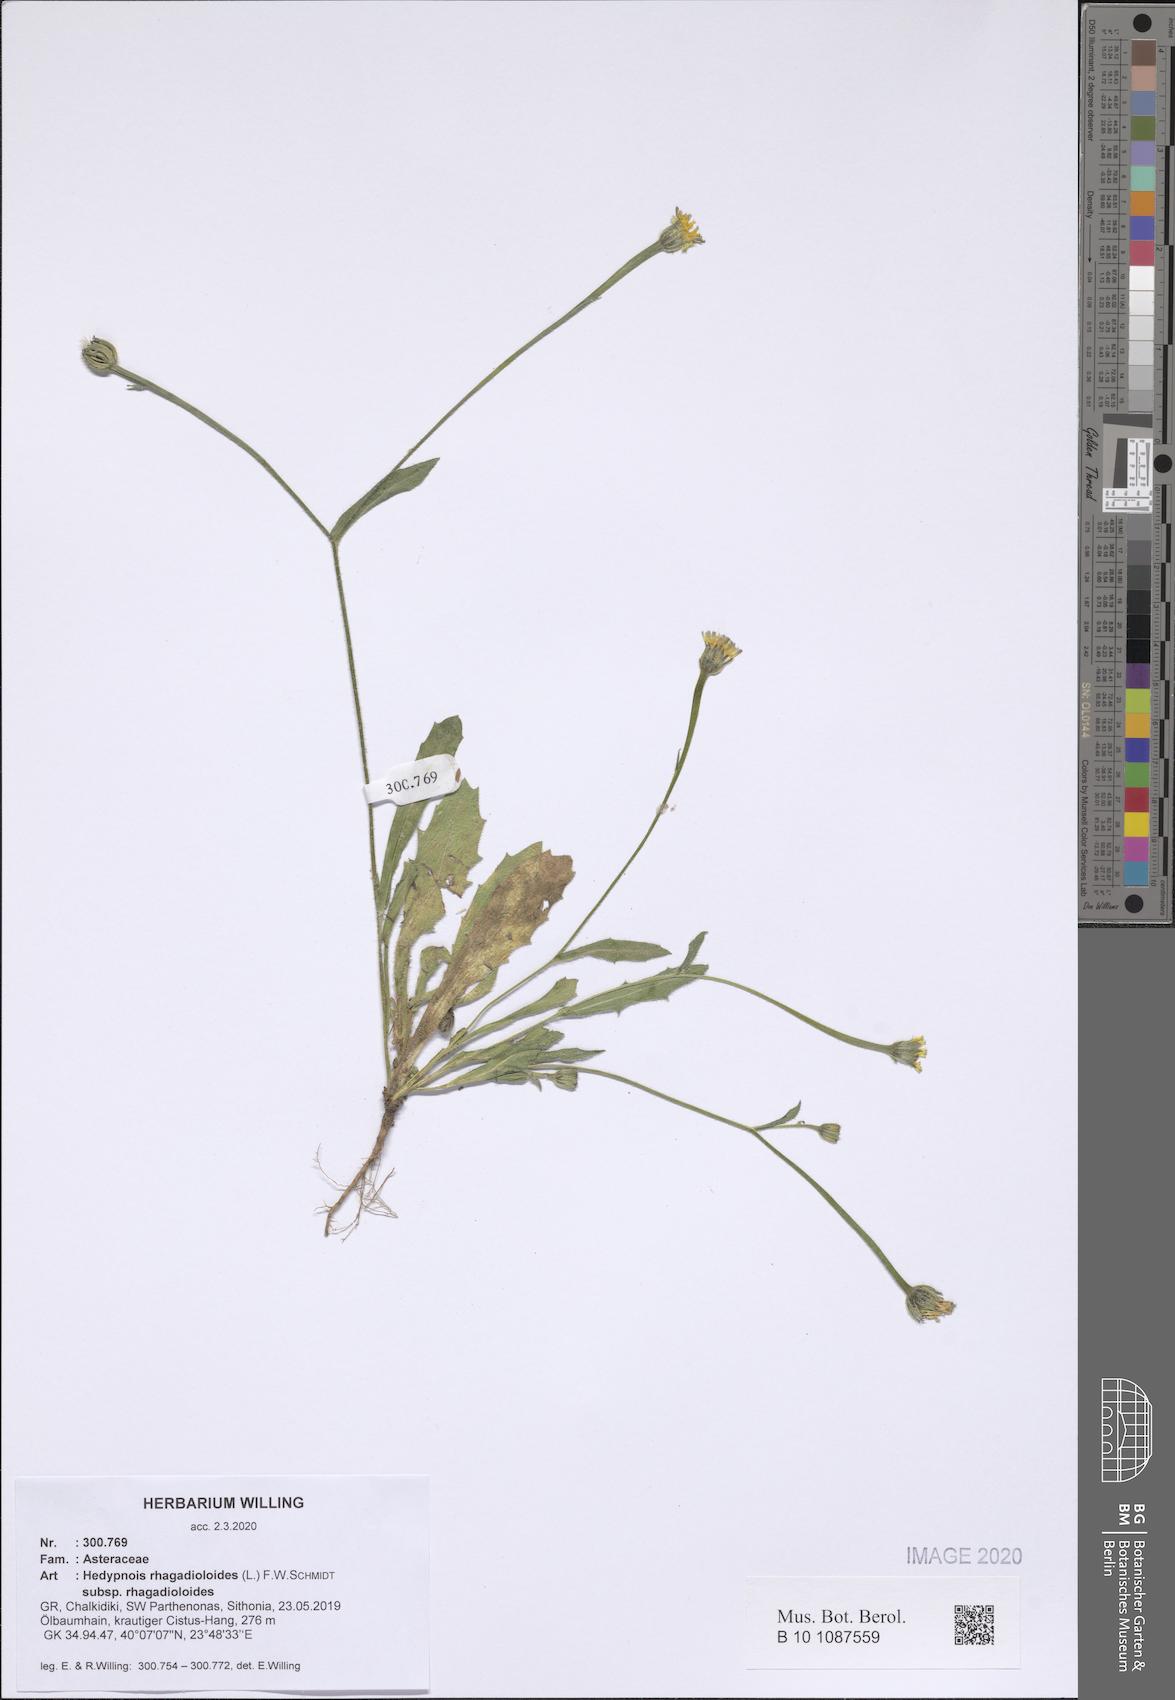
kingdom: Plantae
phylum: Tracheophyta
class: Magnoliopsida
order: Asterales
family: Asteraceae
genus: Hedypnois
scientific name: Hedypnois rhagadioloides
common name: Cretan weed
